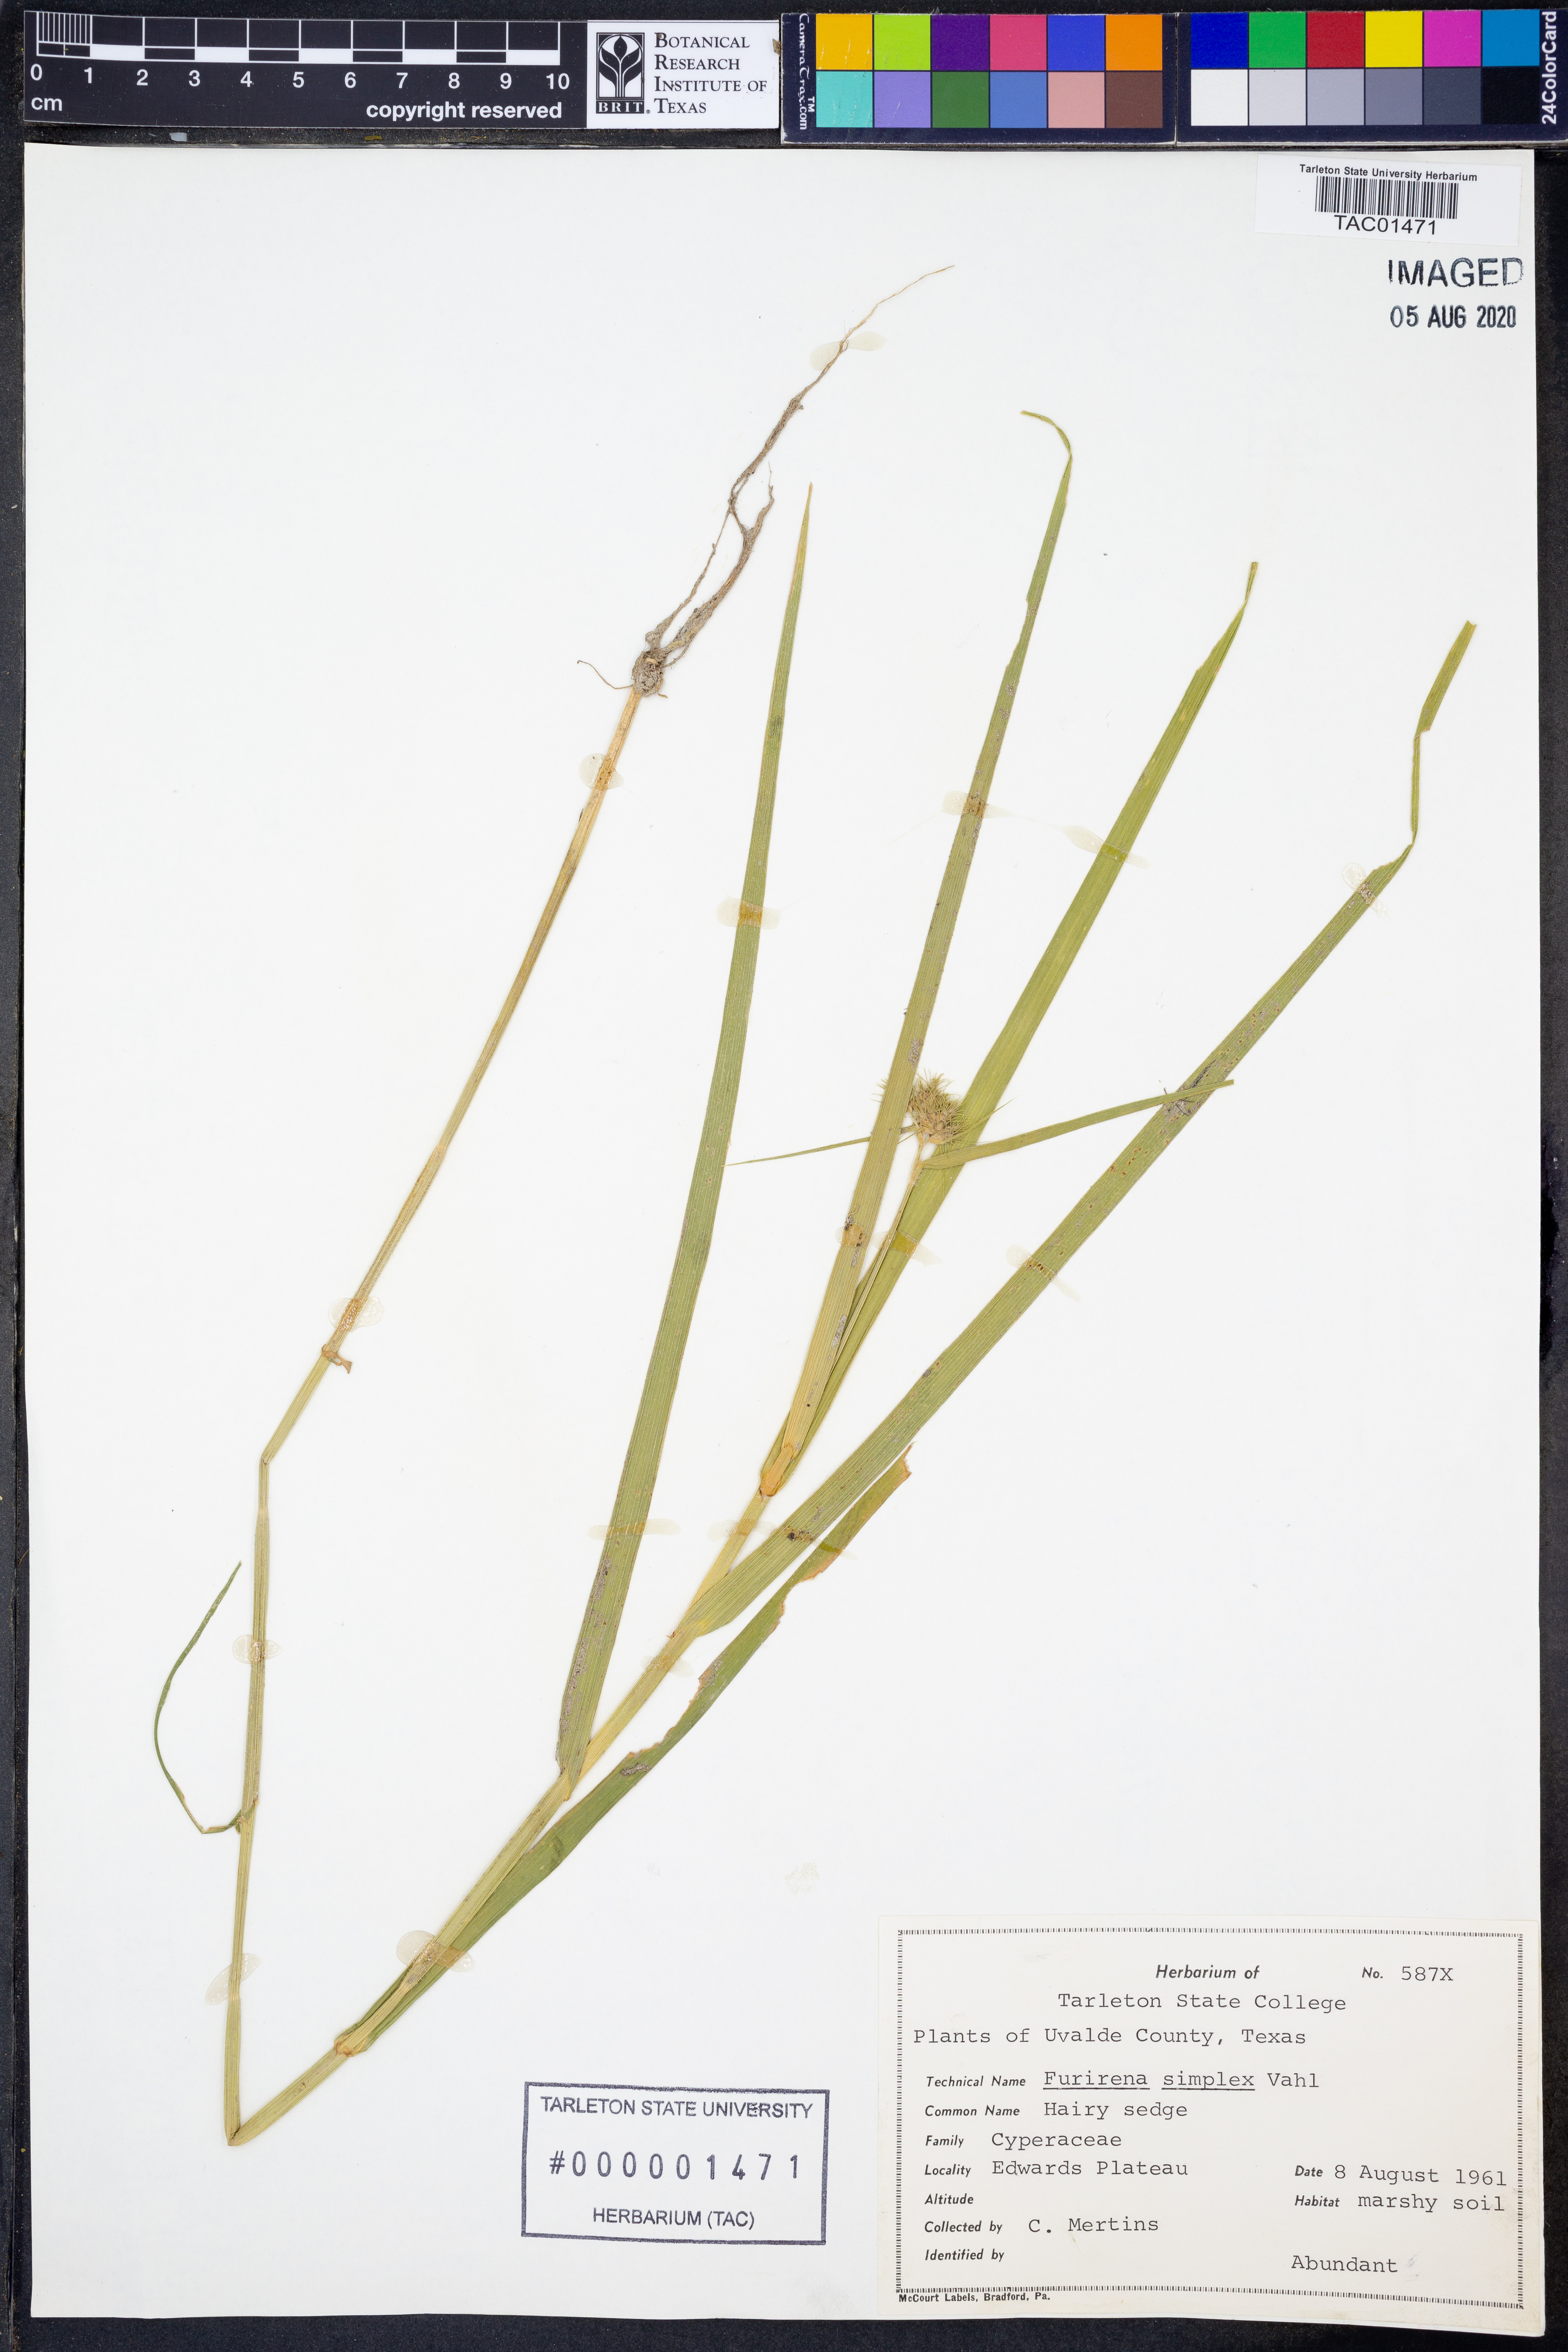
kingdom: Plantae
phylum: Tracheophyta
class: Liliopsida
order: Poales
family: Cyperaceae
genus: Fuirena
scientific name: Fuirena simplex
